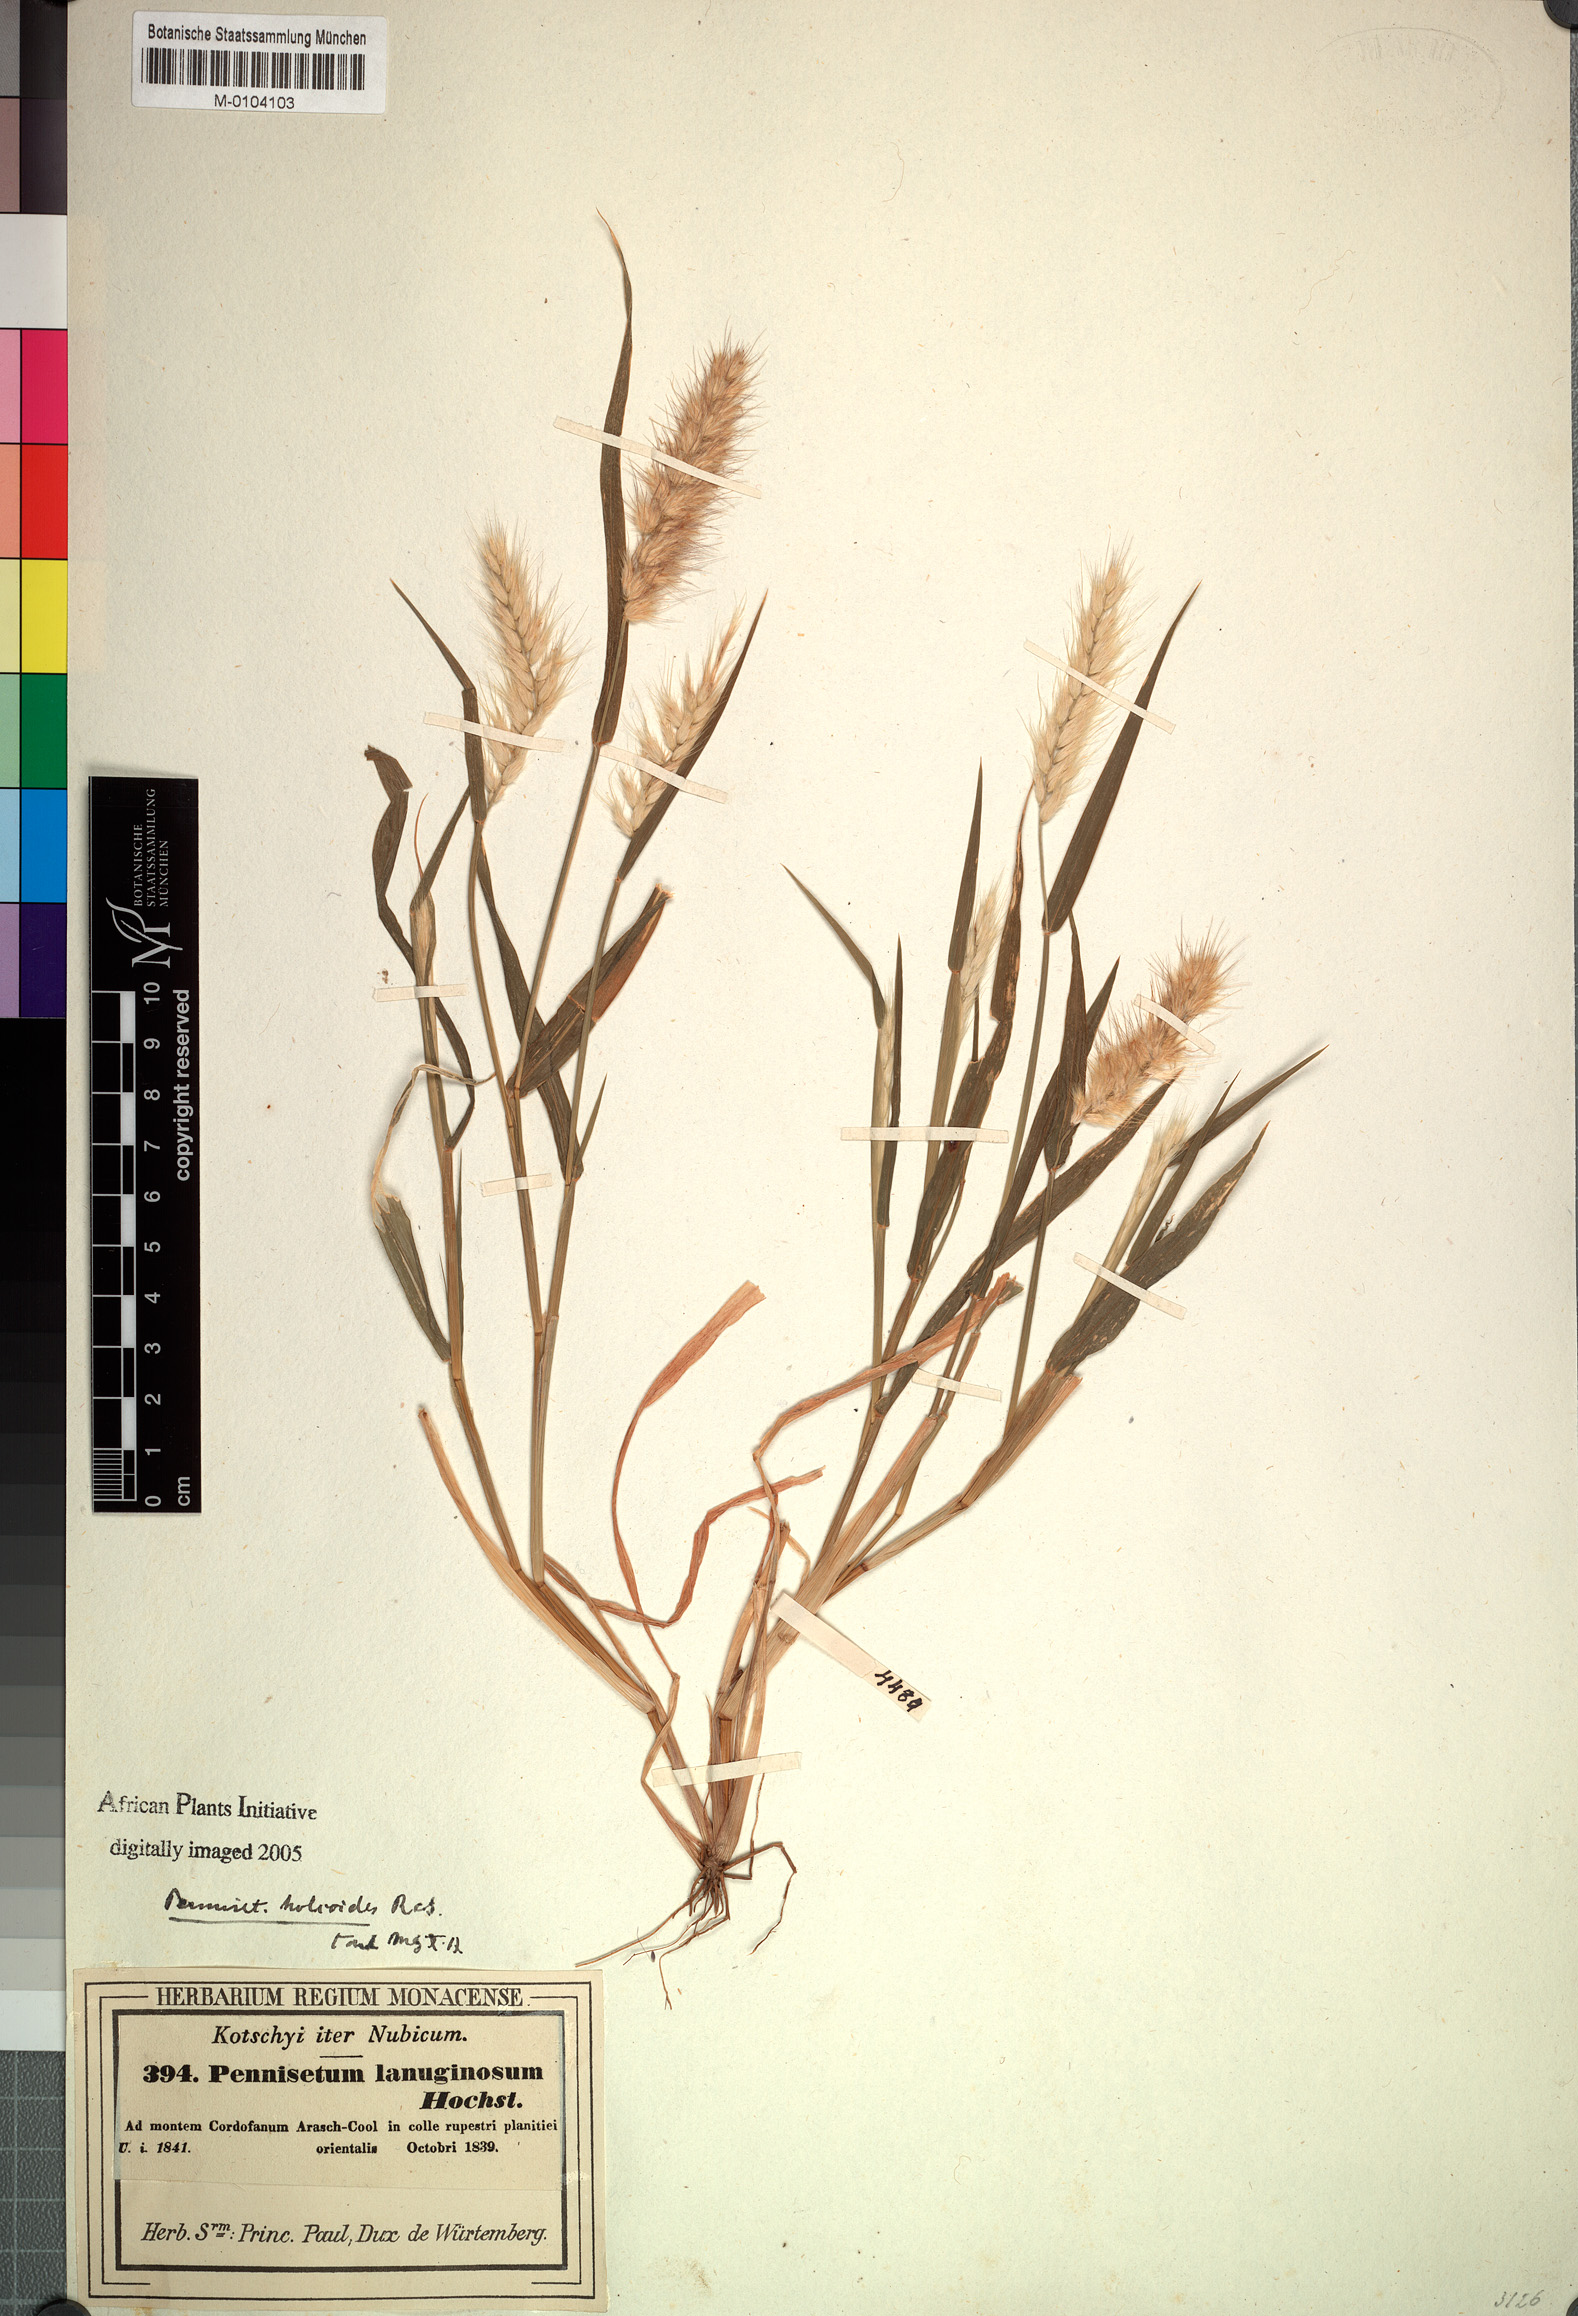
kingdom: Plantae
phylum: Tracheophyta
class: Liliopsida
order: Poales
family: Poaceae
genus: Cenchrus
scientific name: Cenchrus pedicellatus
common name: Hairy fountain grass
